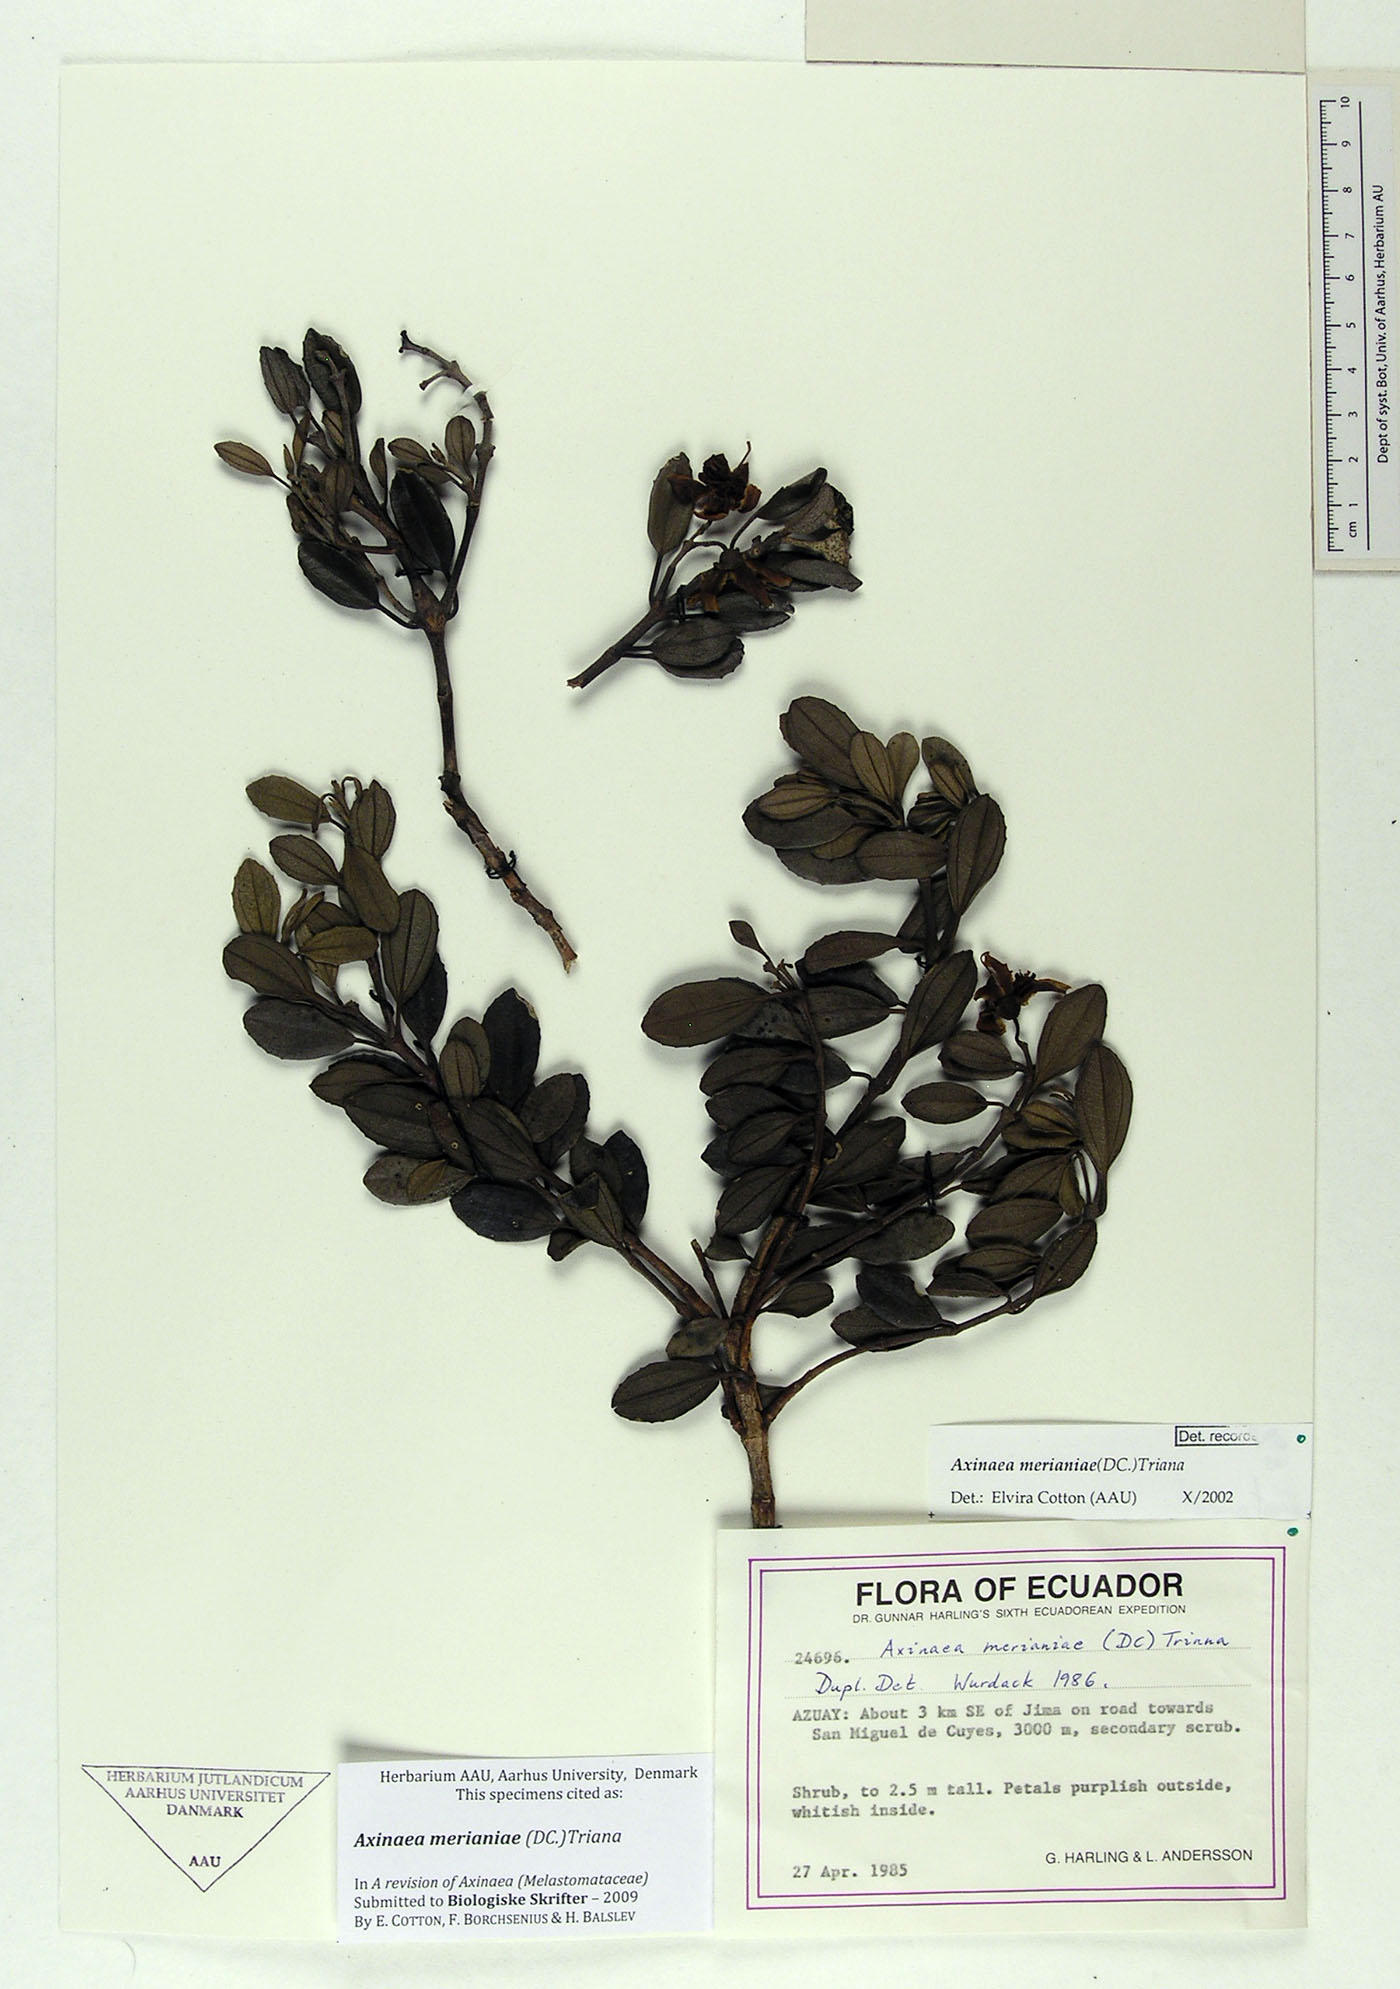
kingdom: Plantae
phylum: Tracheophyta
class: Magnoliopsida
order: Myrtales
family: Melastomataceae
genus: Axinaea
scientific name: Axinaea merianiae
